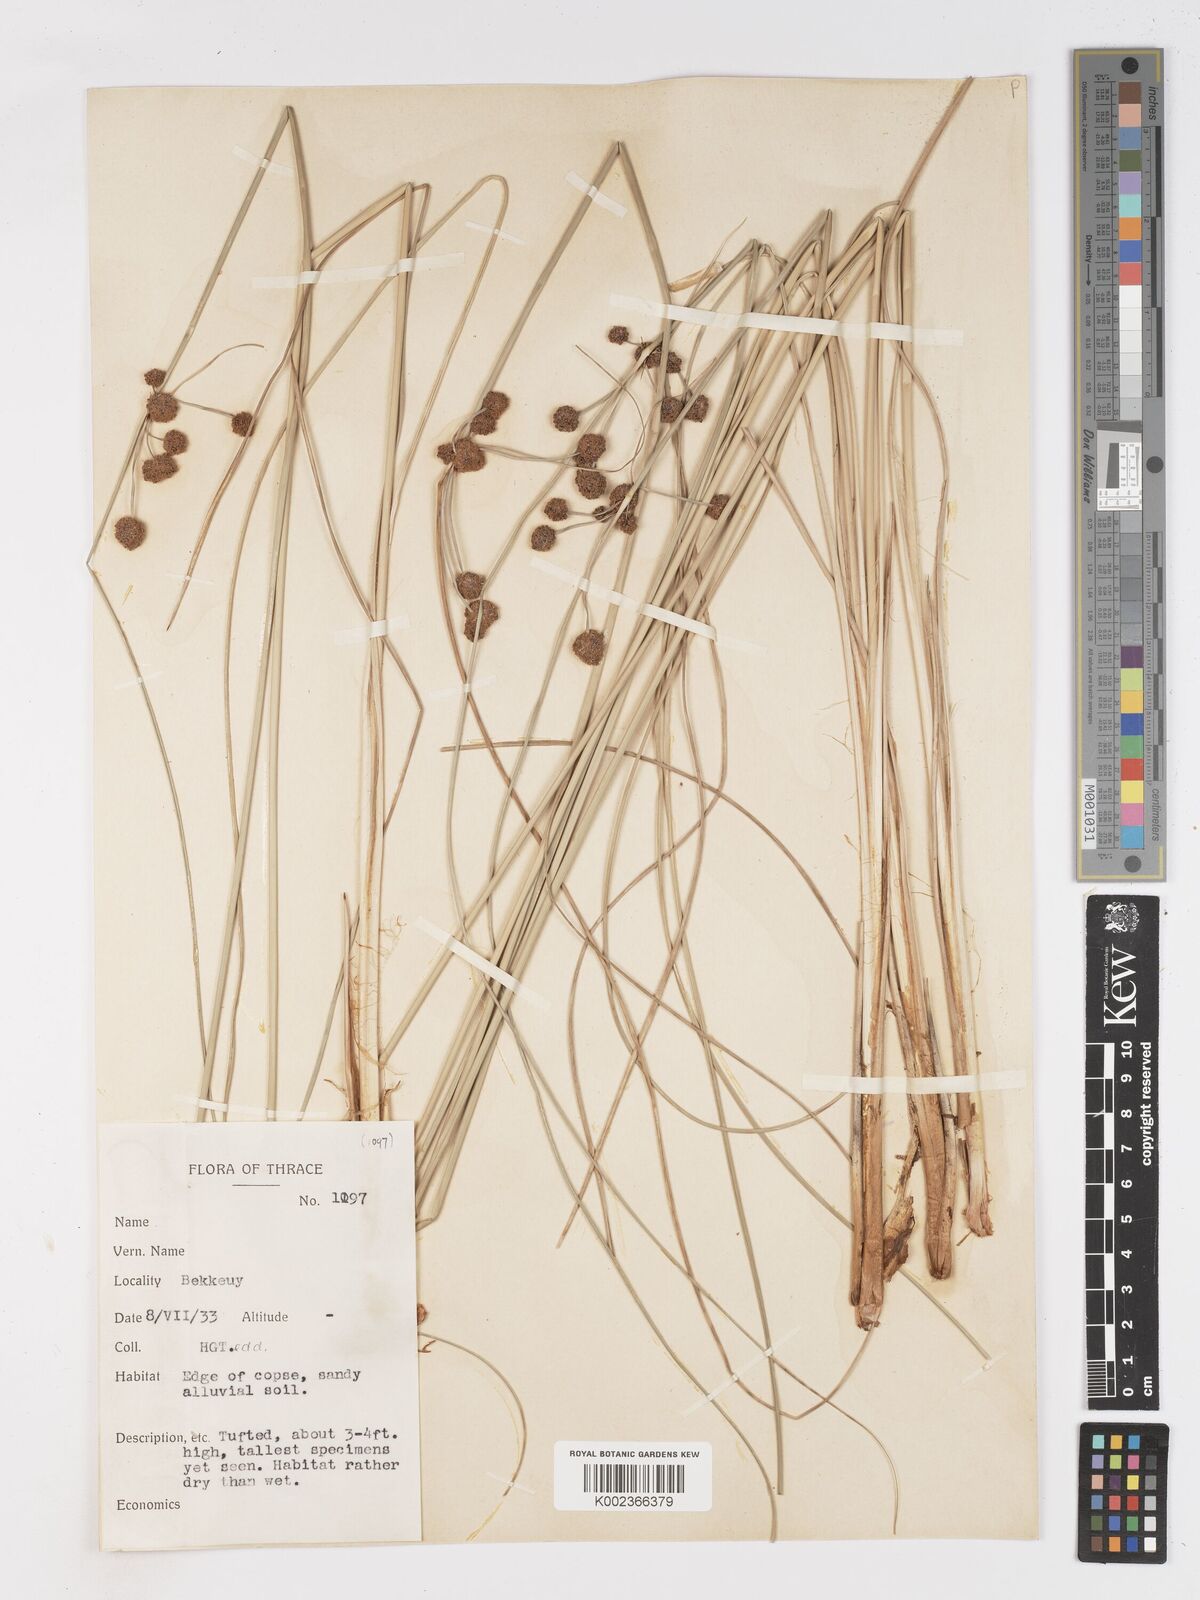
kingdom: Plantae
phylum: Tracheophyta
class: Liliopsida
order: Poales
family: Cyperaceae
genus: Scirpoides
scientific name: Scirpoides holoschoenus
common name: Round-headed club-rush
